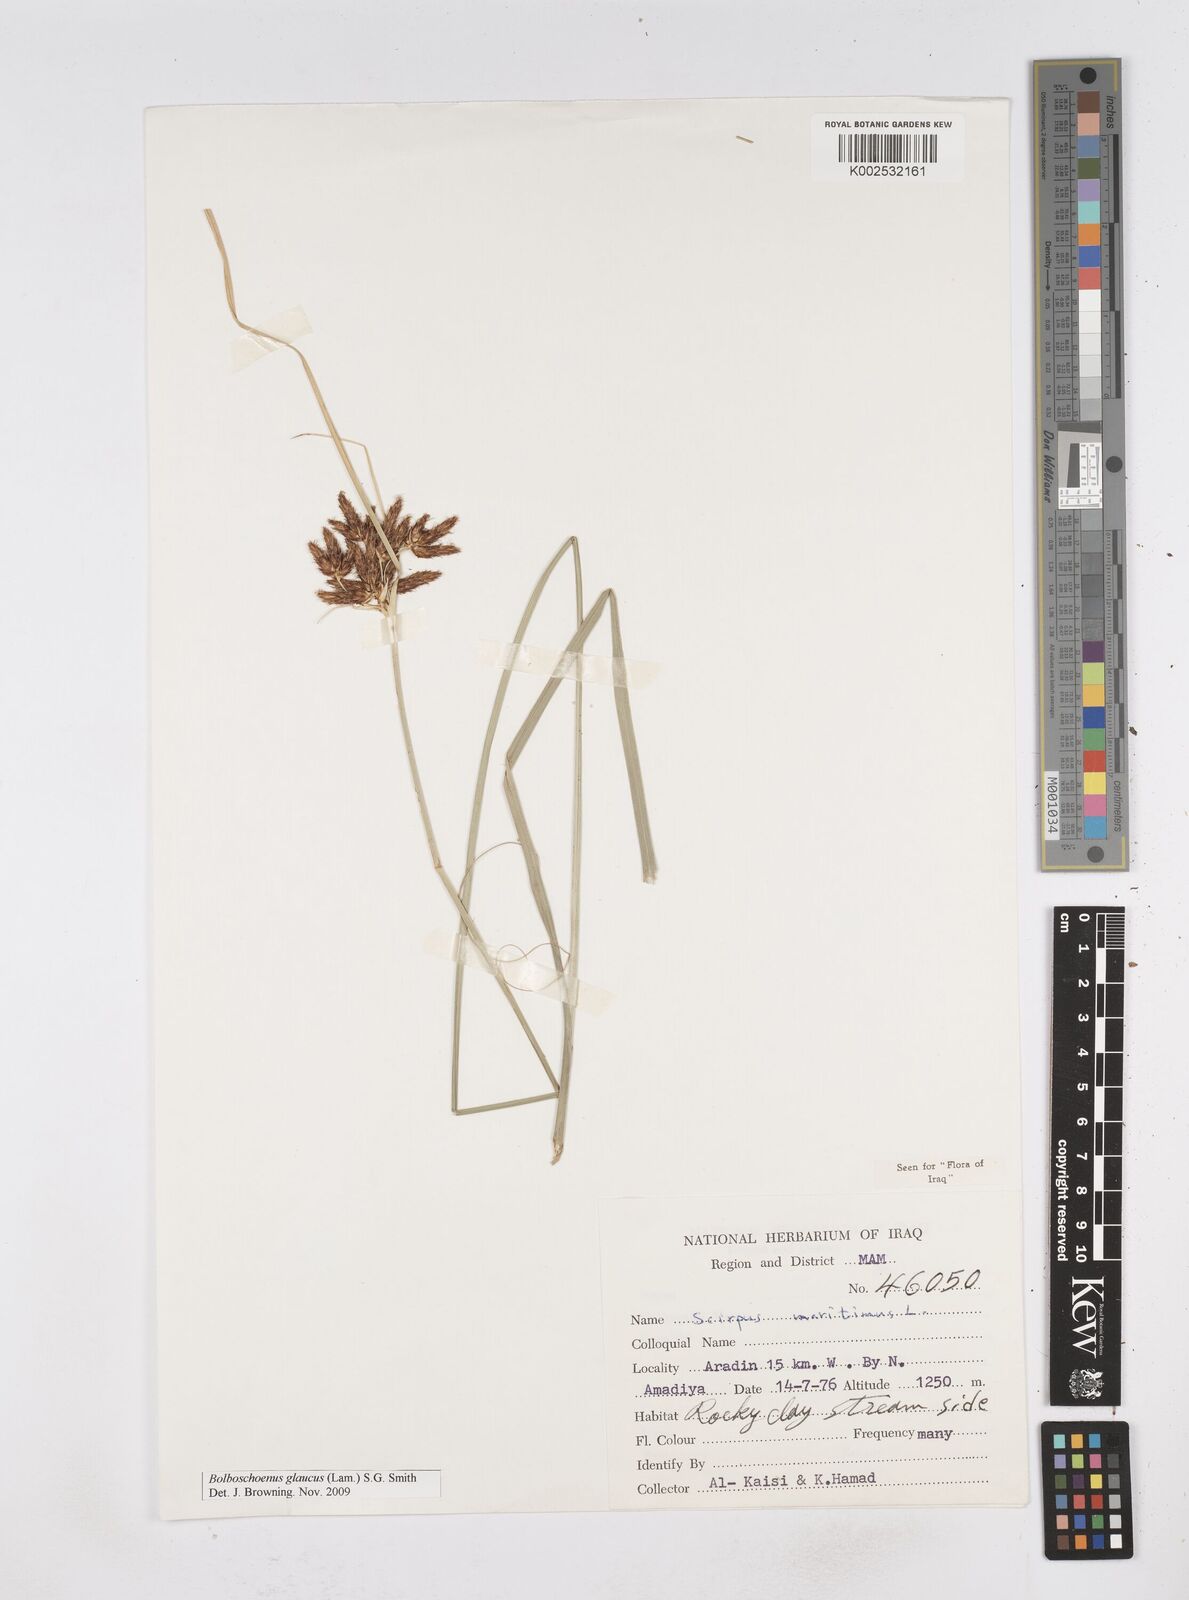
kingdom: Plantae
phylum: Tracheophyta
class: Liliopsida
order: Poales
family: Cyperaceae
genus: Bolboschoenus
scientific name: Bolboschoenus maritimus
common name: Sea club-rush
